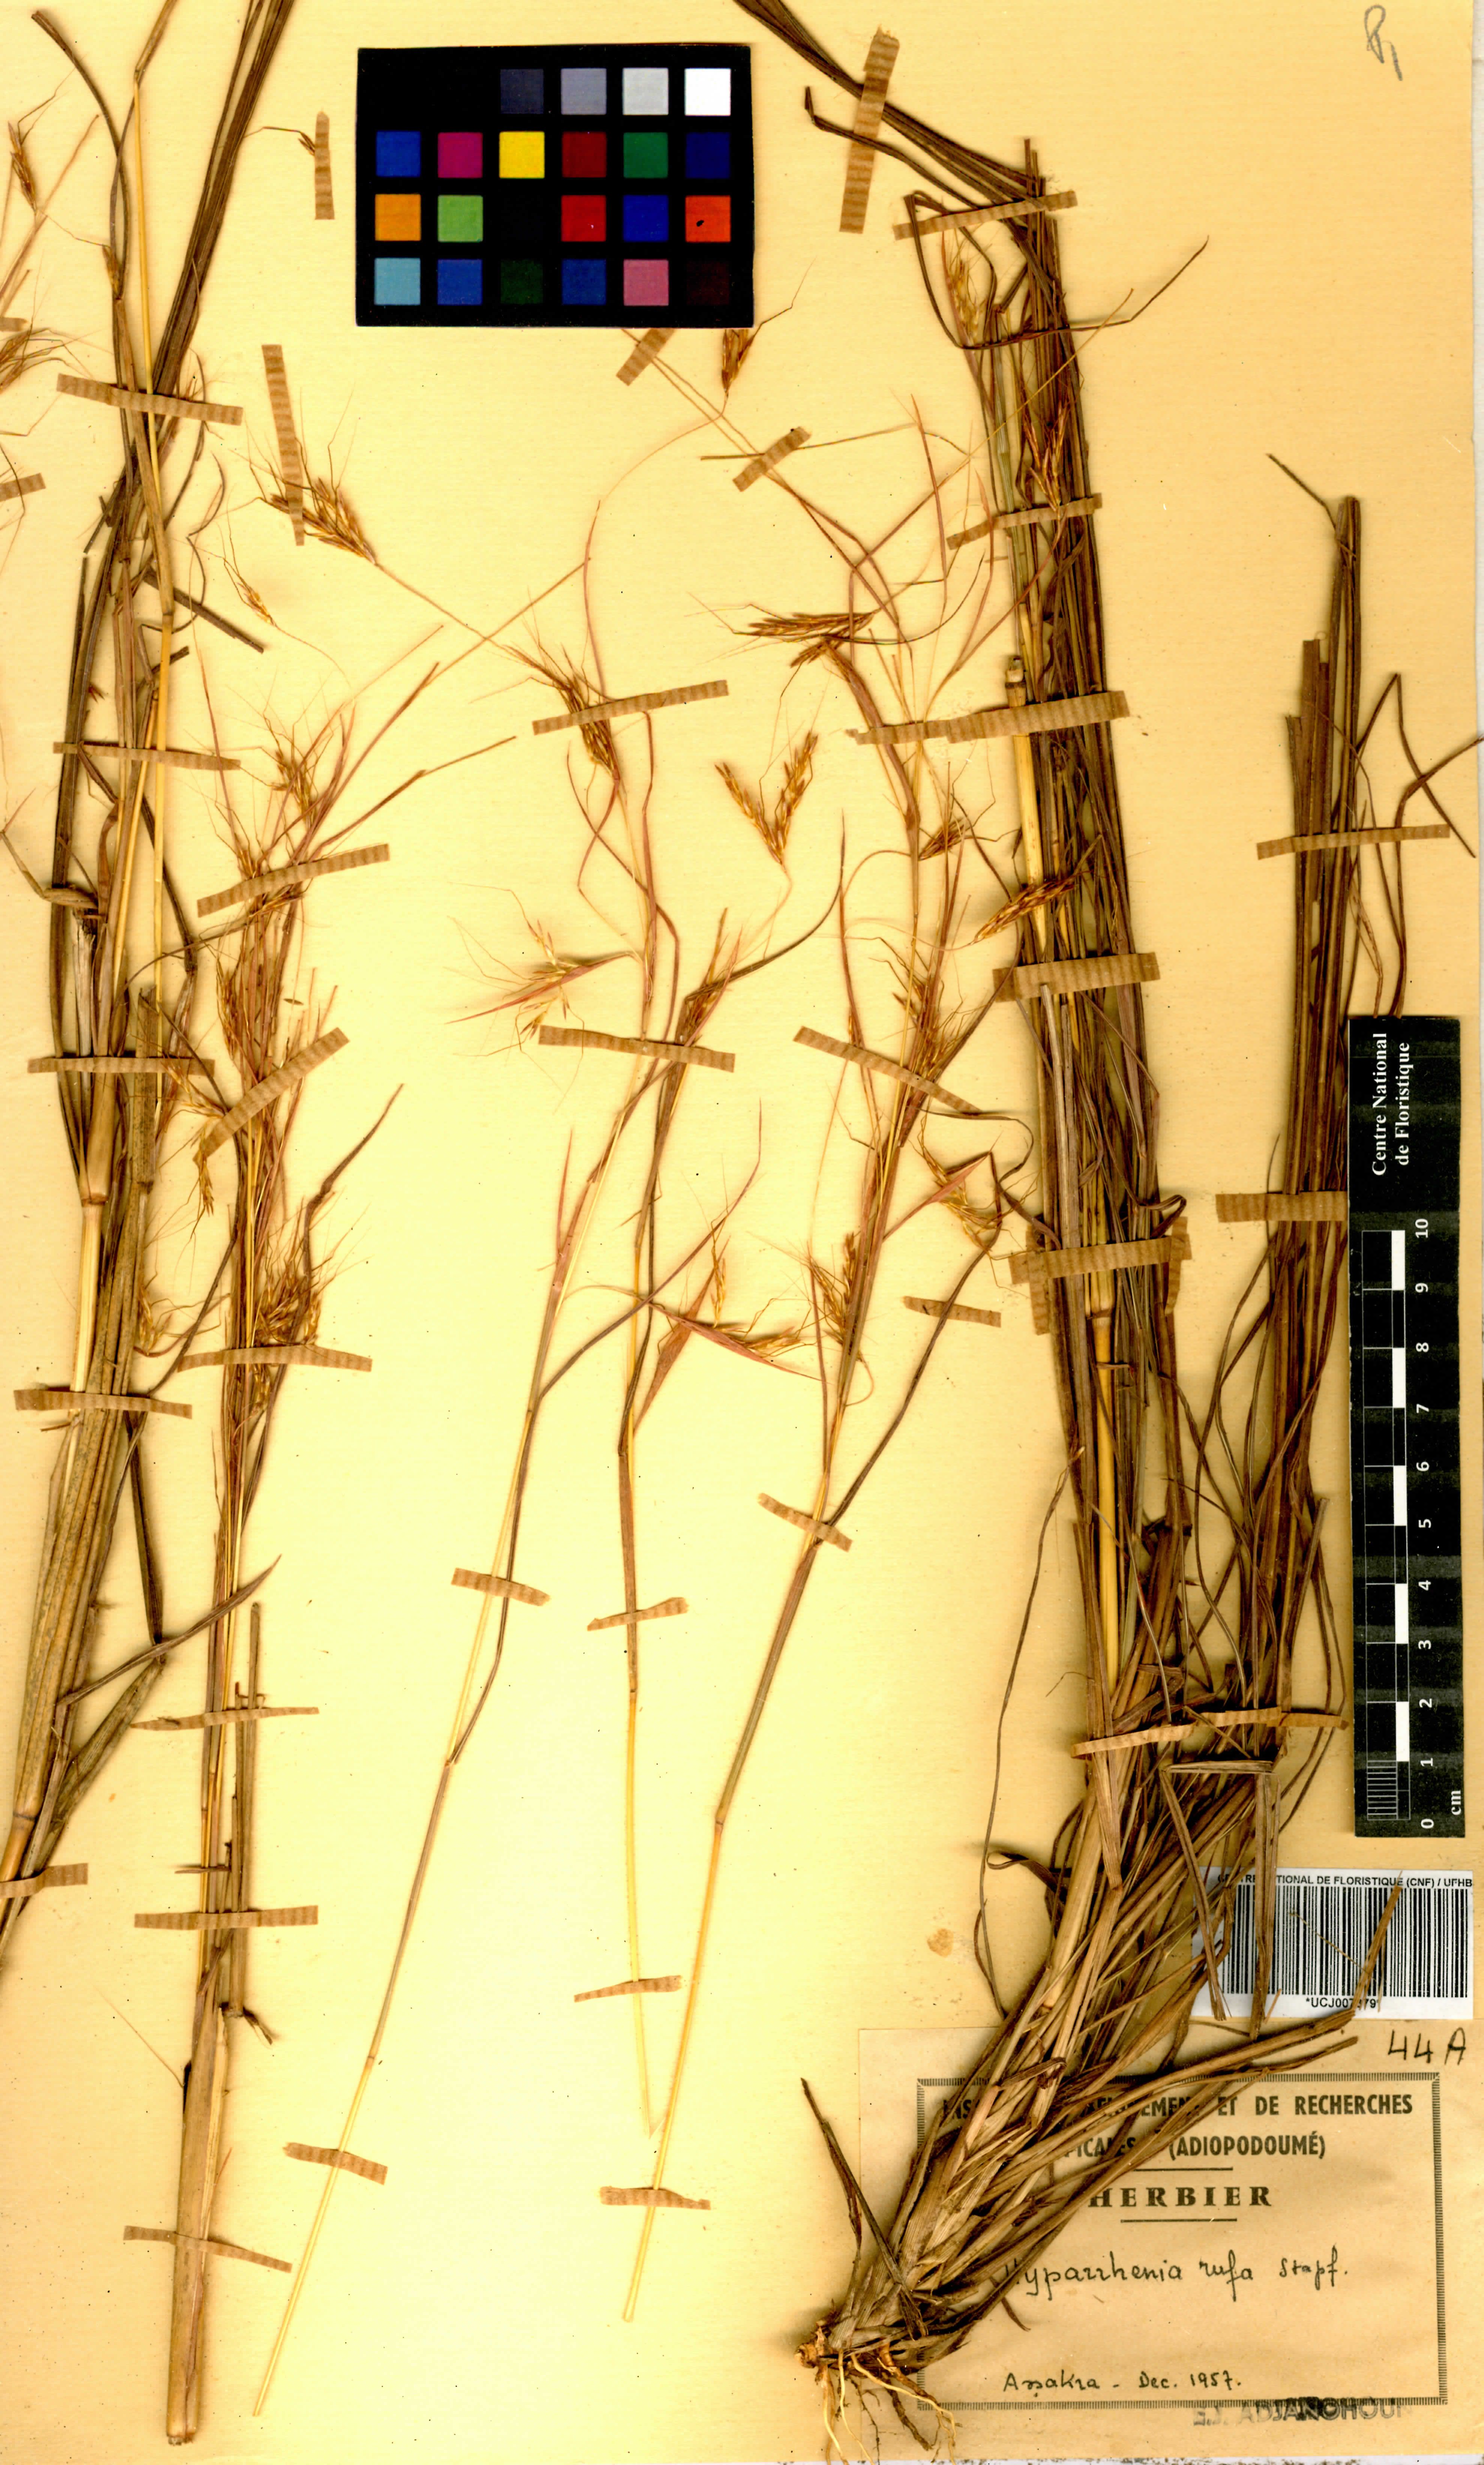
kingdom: Plantae
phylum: Tracheophyta
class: Liliopsida
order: Poales
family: Poaceae
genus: Hyparrhenia
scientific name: Hyparrhenia rufa
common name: Jaraguagrass
